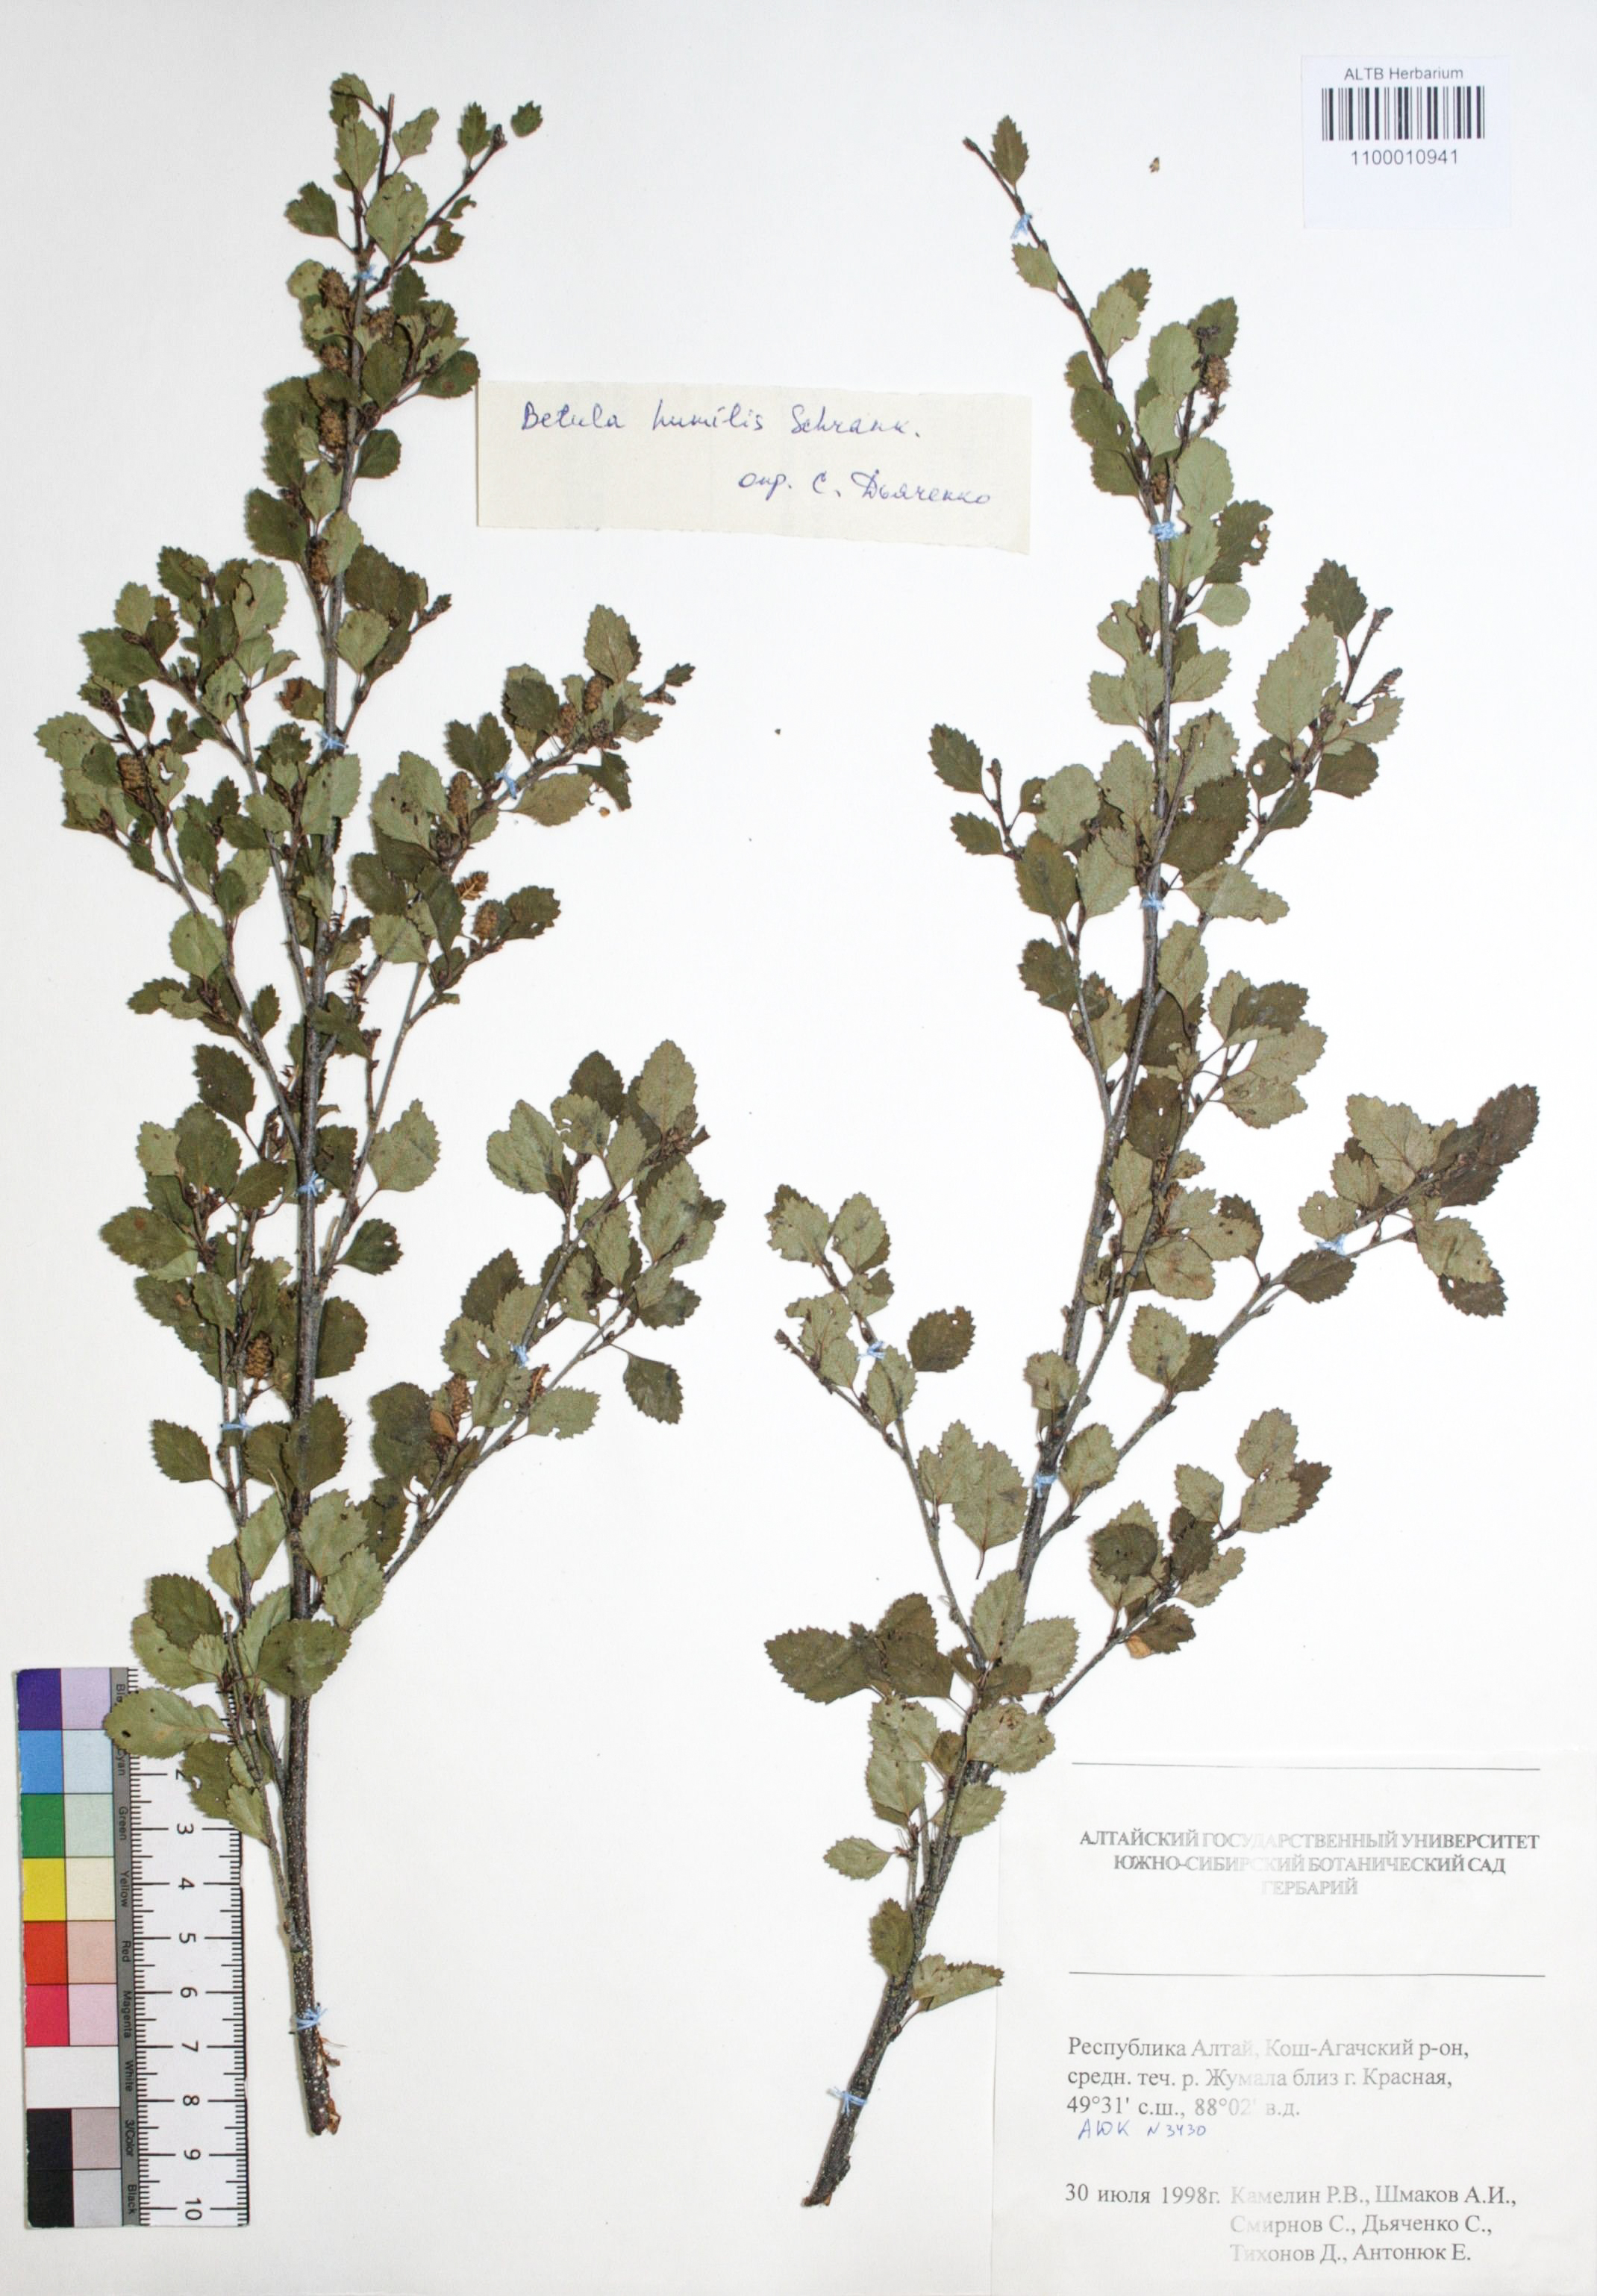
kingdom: Plantae
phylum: Tracheophyta
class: Magnoliopsida
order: Fagales
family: Betulaceae
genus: Betula
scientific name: Betula humilis
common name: Shrubby birch
